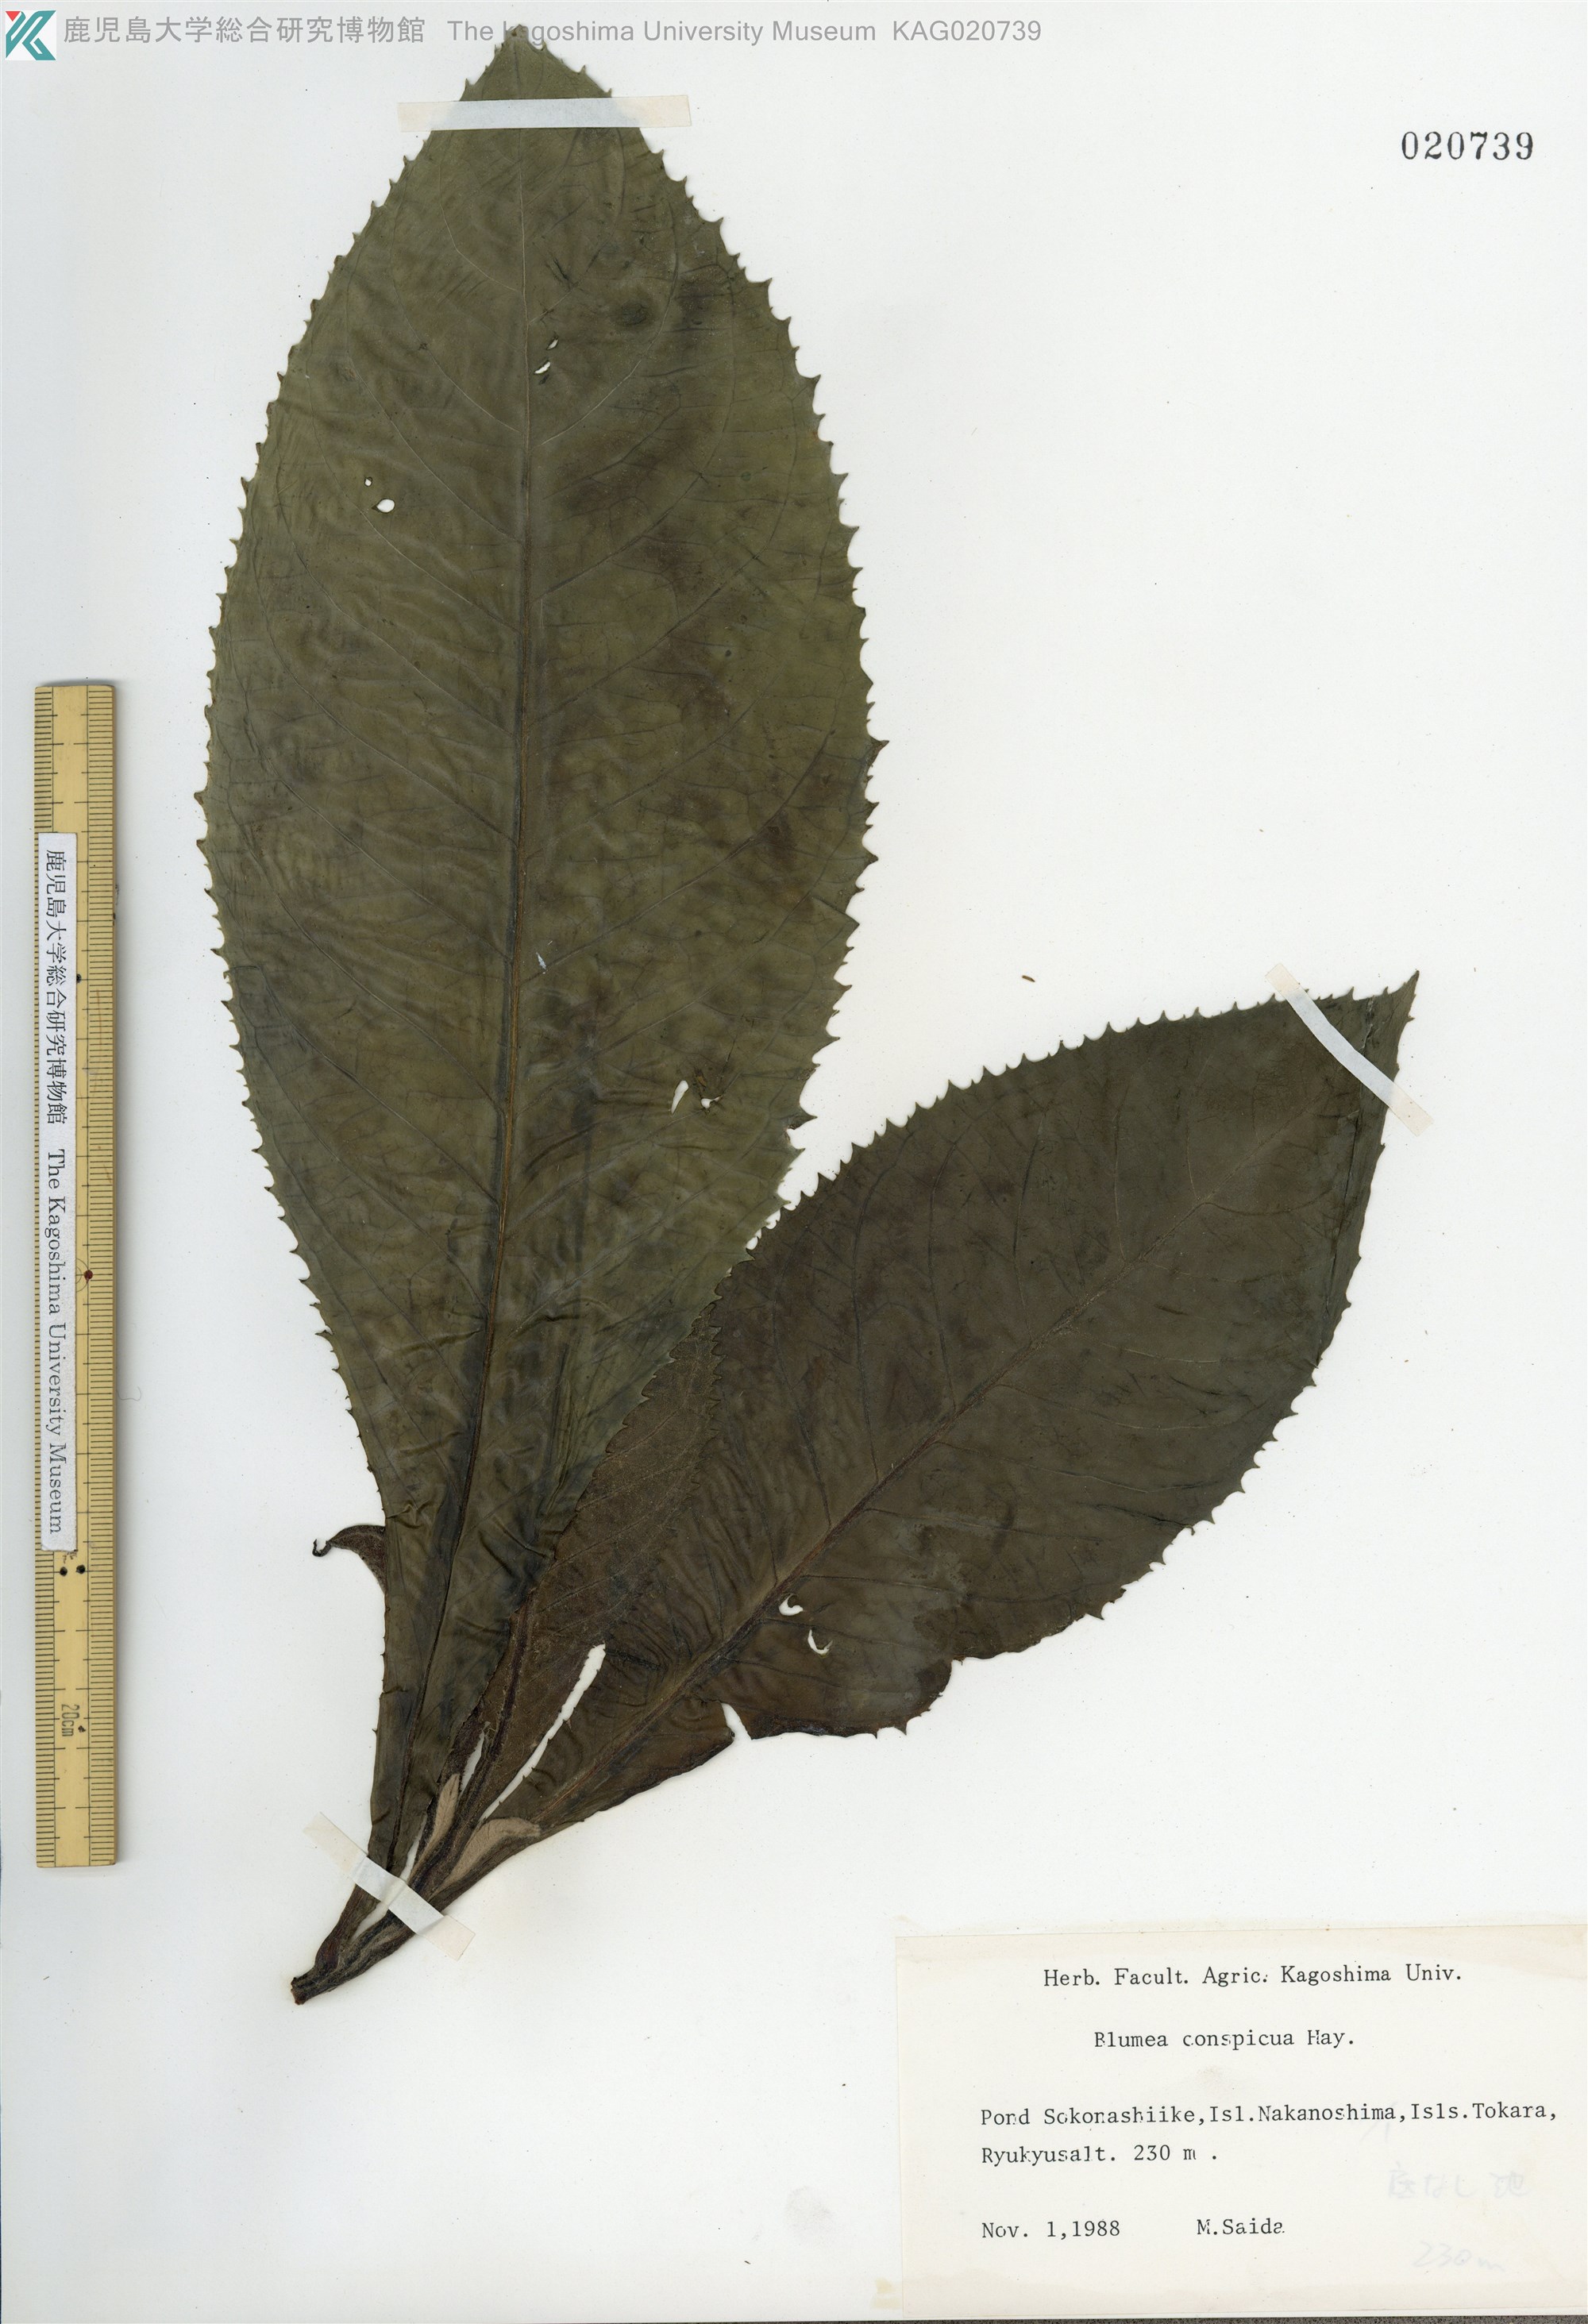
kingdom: Plantae
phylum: Tracheophyta
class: Magnoliopsida
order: Asterales
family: Asteraceae
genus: Blumea
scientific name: Blumea conspicua
